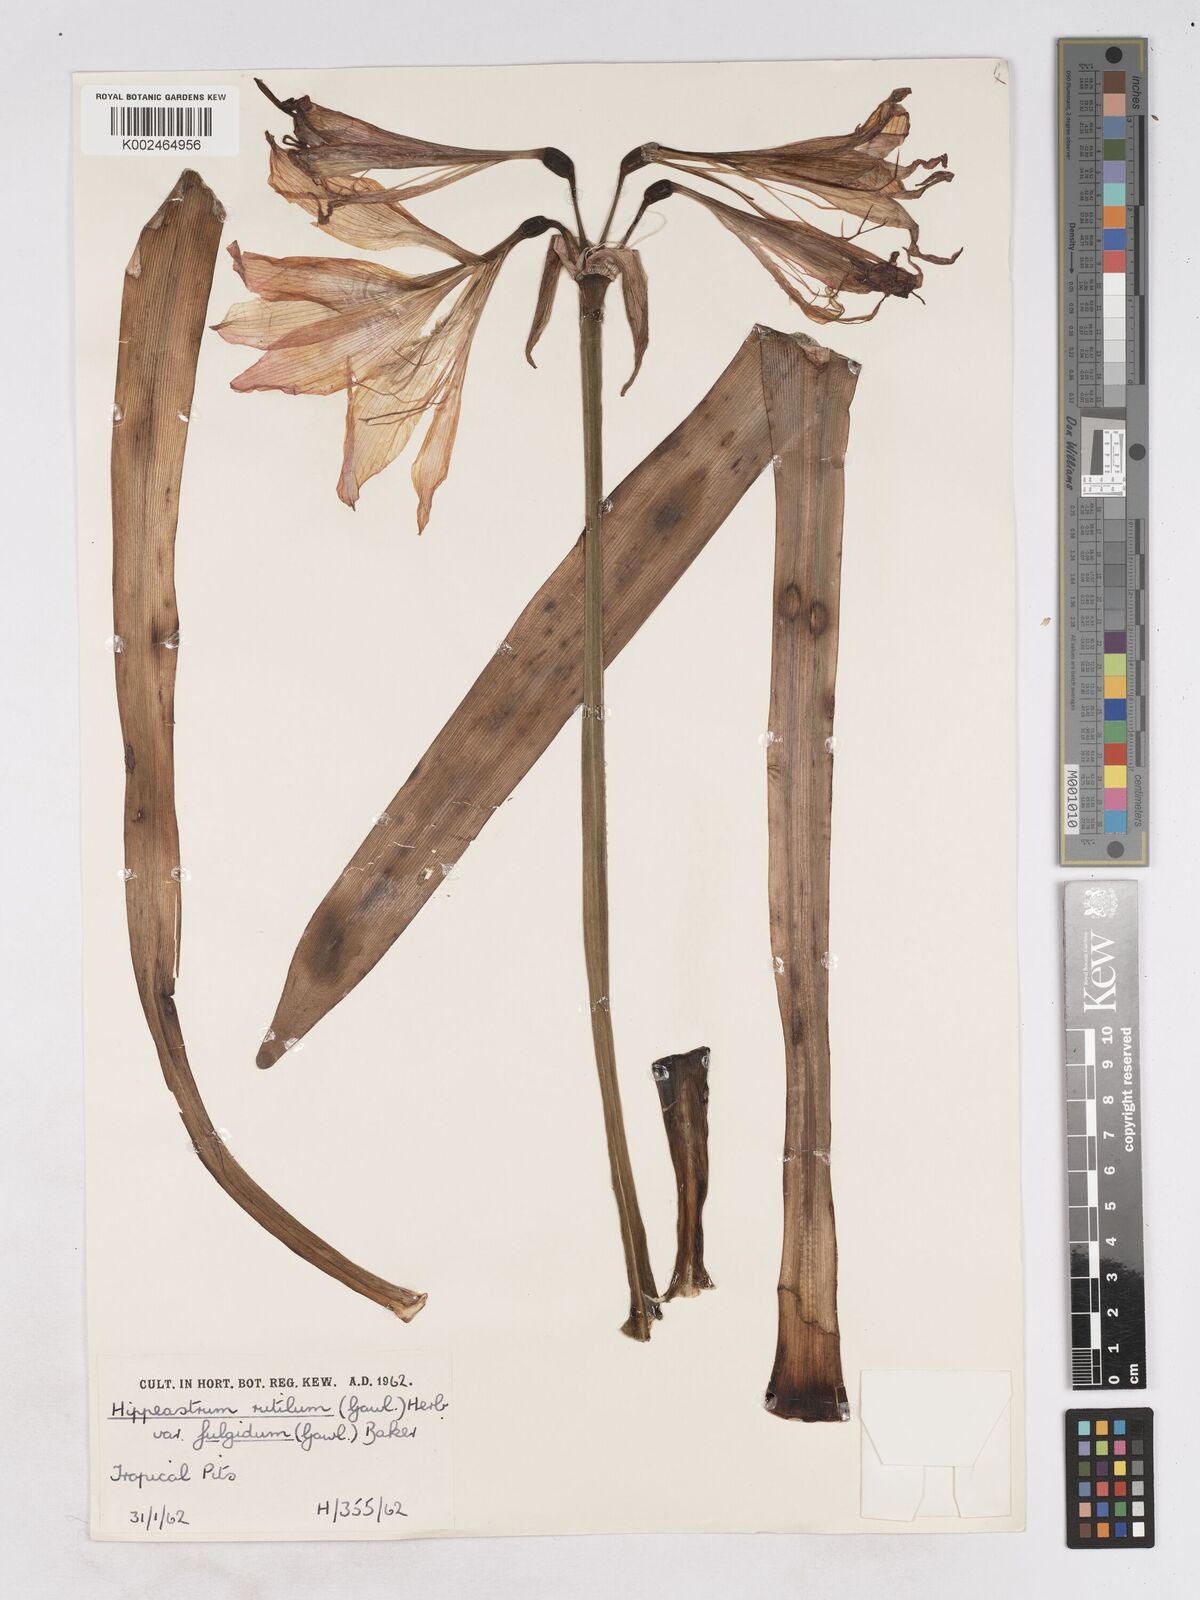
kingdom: Plantae
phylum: Tracheophyta
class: Liliopsida
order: Asparagales
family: Amaryllidaceae
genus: Hippeastrum
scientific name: Hippeastrum striatum
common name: Striped barbados lily
